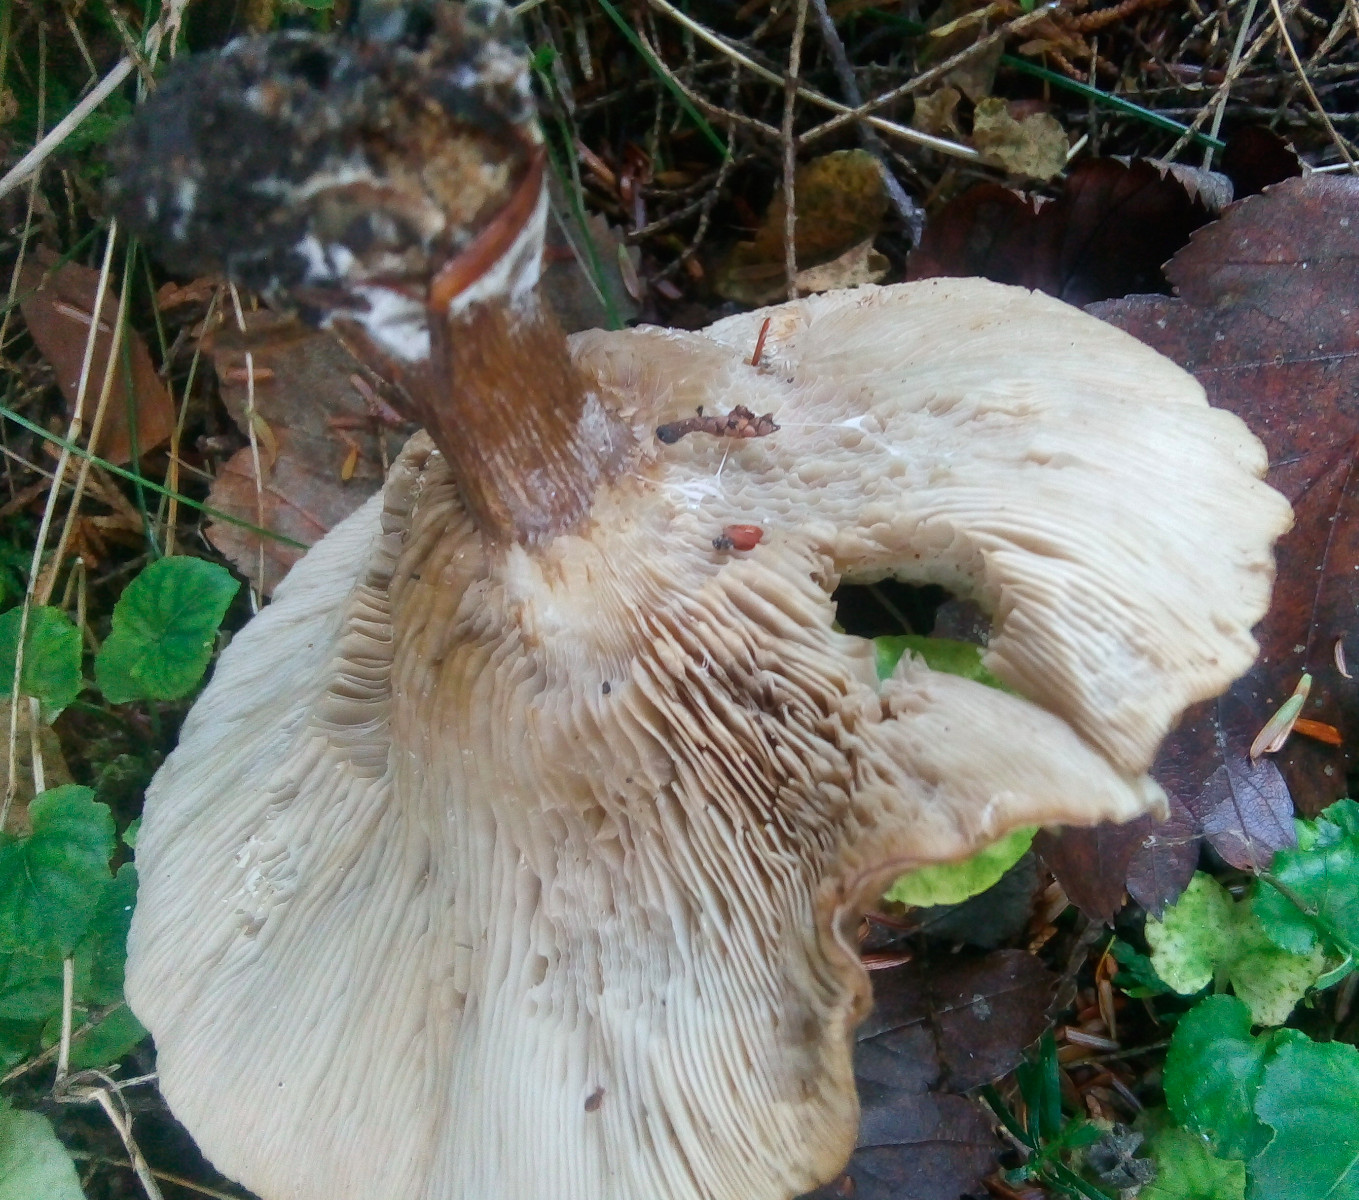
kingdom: Fungi
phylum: Basidiomycota
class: Agaricomycetes
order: Agaricales
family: Tricholomataceae
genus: Melanoleuca
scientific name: Melanoleuca
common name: munkehat
